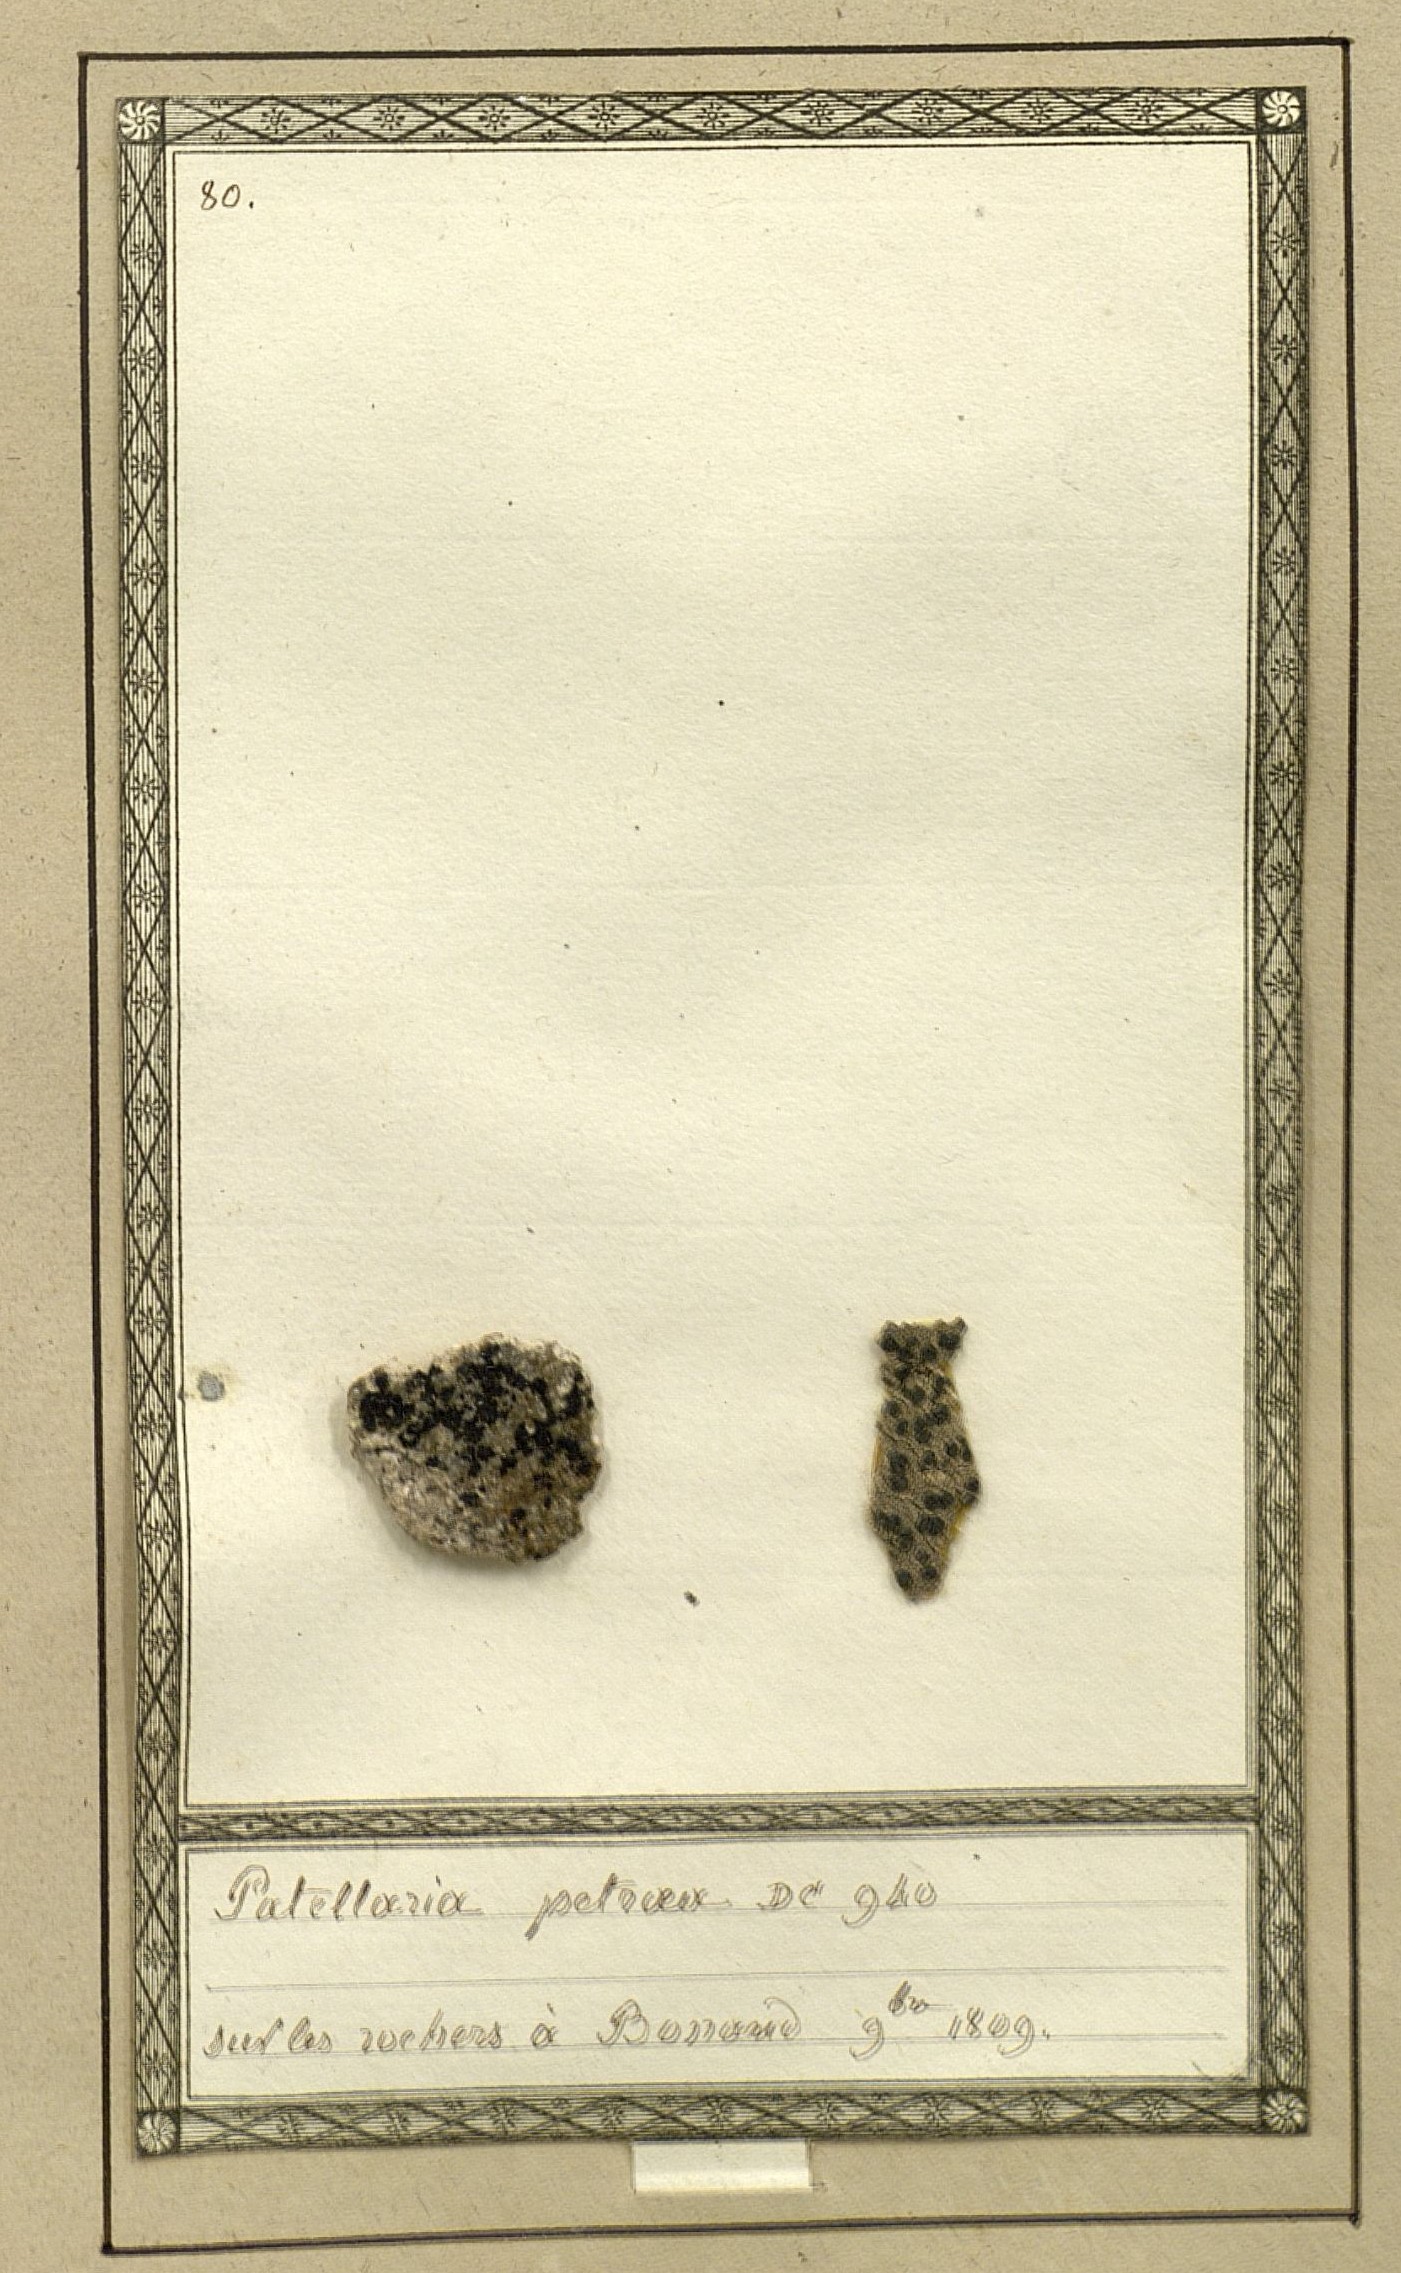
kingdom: Fungi
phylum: Ascomycota
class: Lecanoromycetes
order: Rhizocarpales
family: Rhizocarpaceae
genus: Rhizocarpon
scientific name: Rhizocarpon petraeum
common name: Rock-loving map lichen
